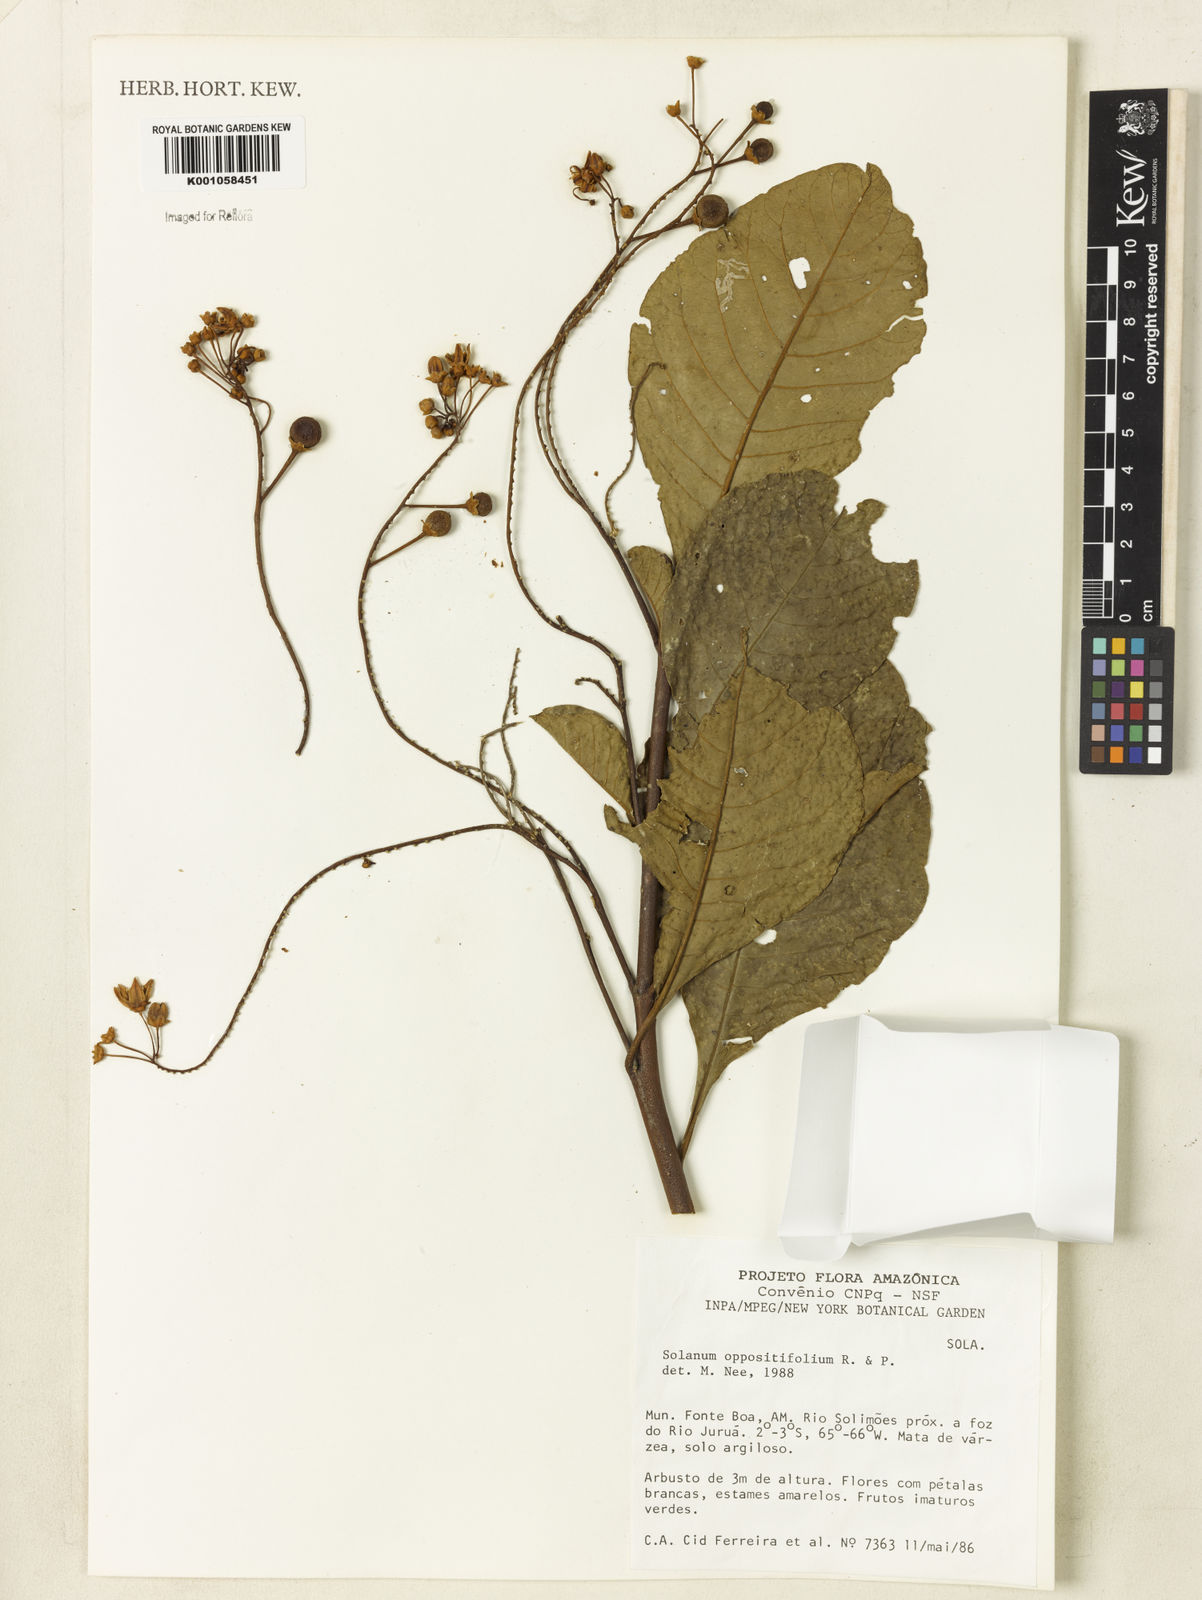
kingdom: Plantae
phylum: Tracheophyta
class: Magnoliopsida
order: Solanales
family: Solanaceae
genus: Solanum
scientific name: Solanum oppositifolium
